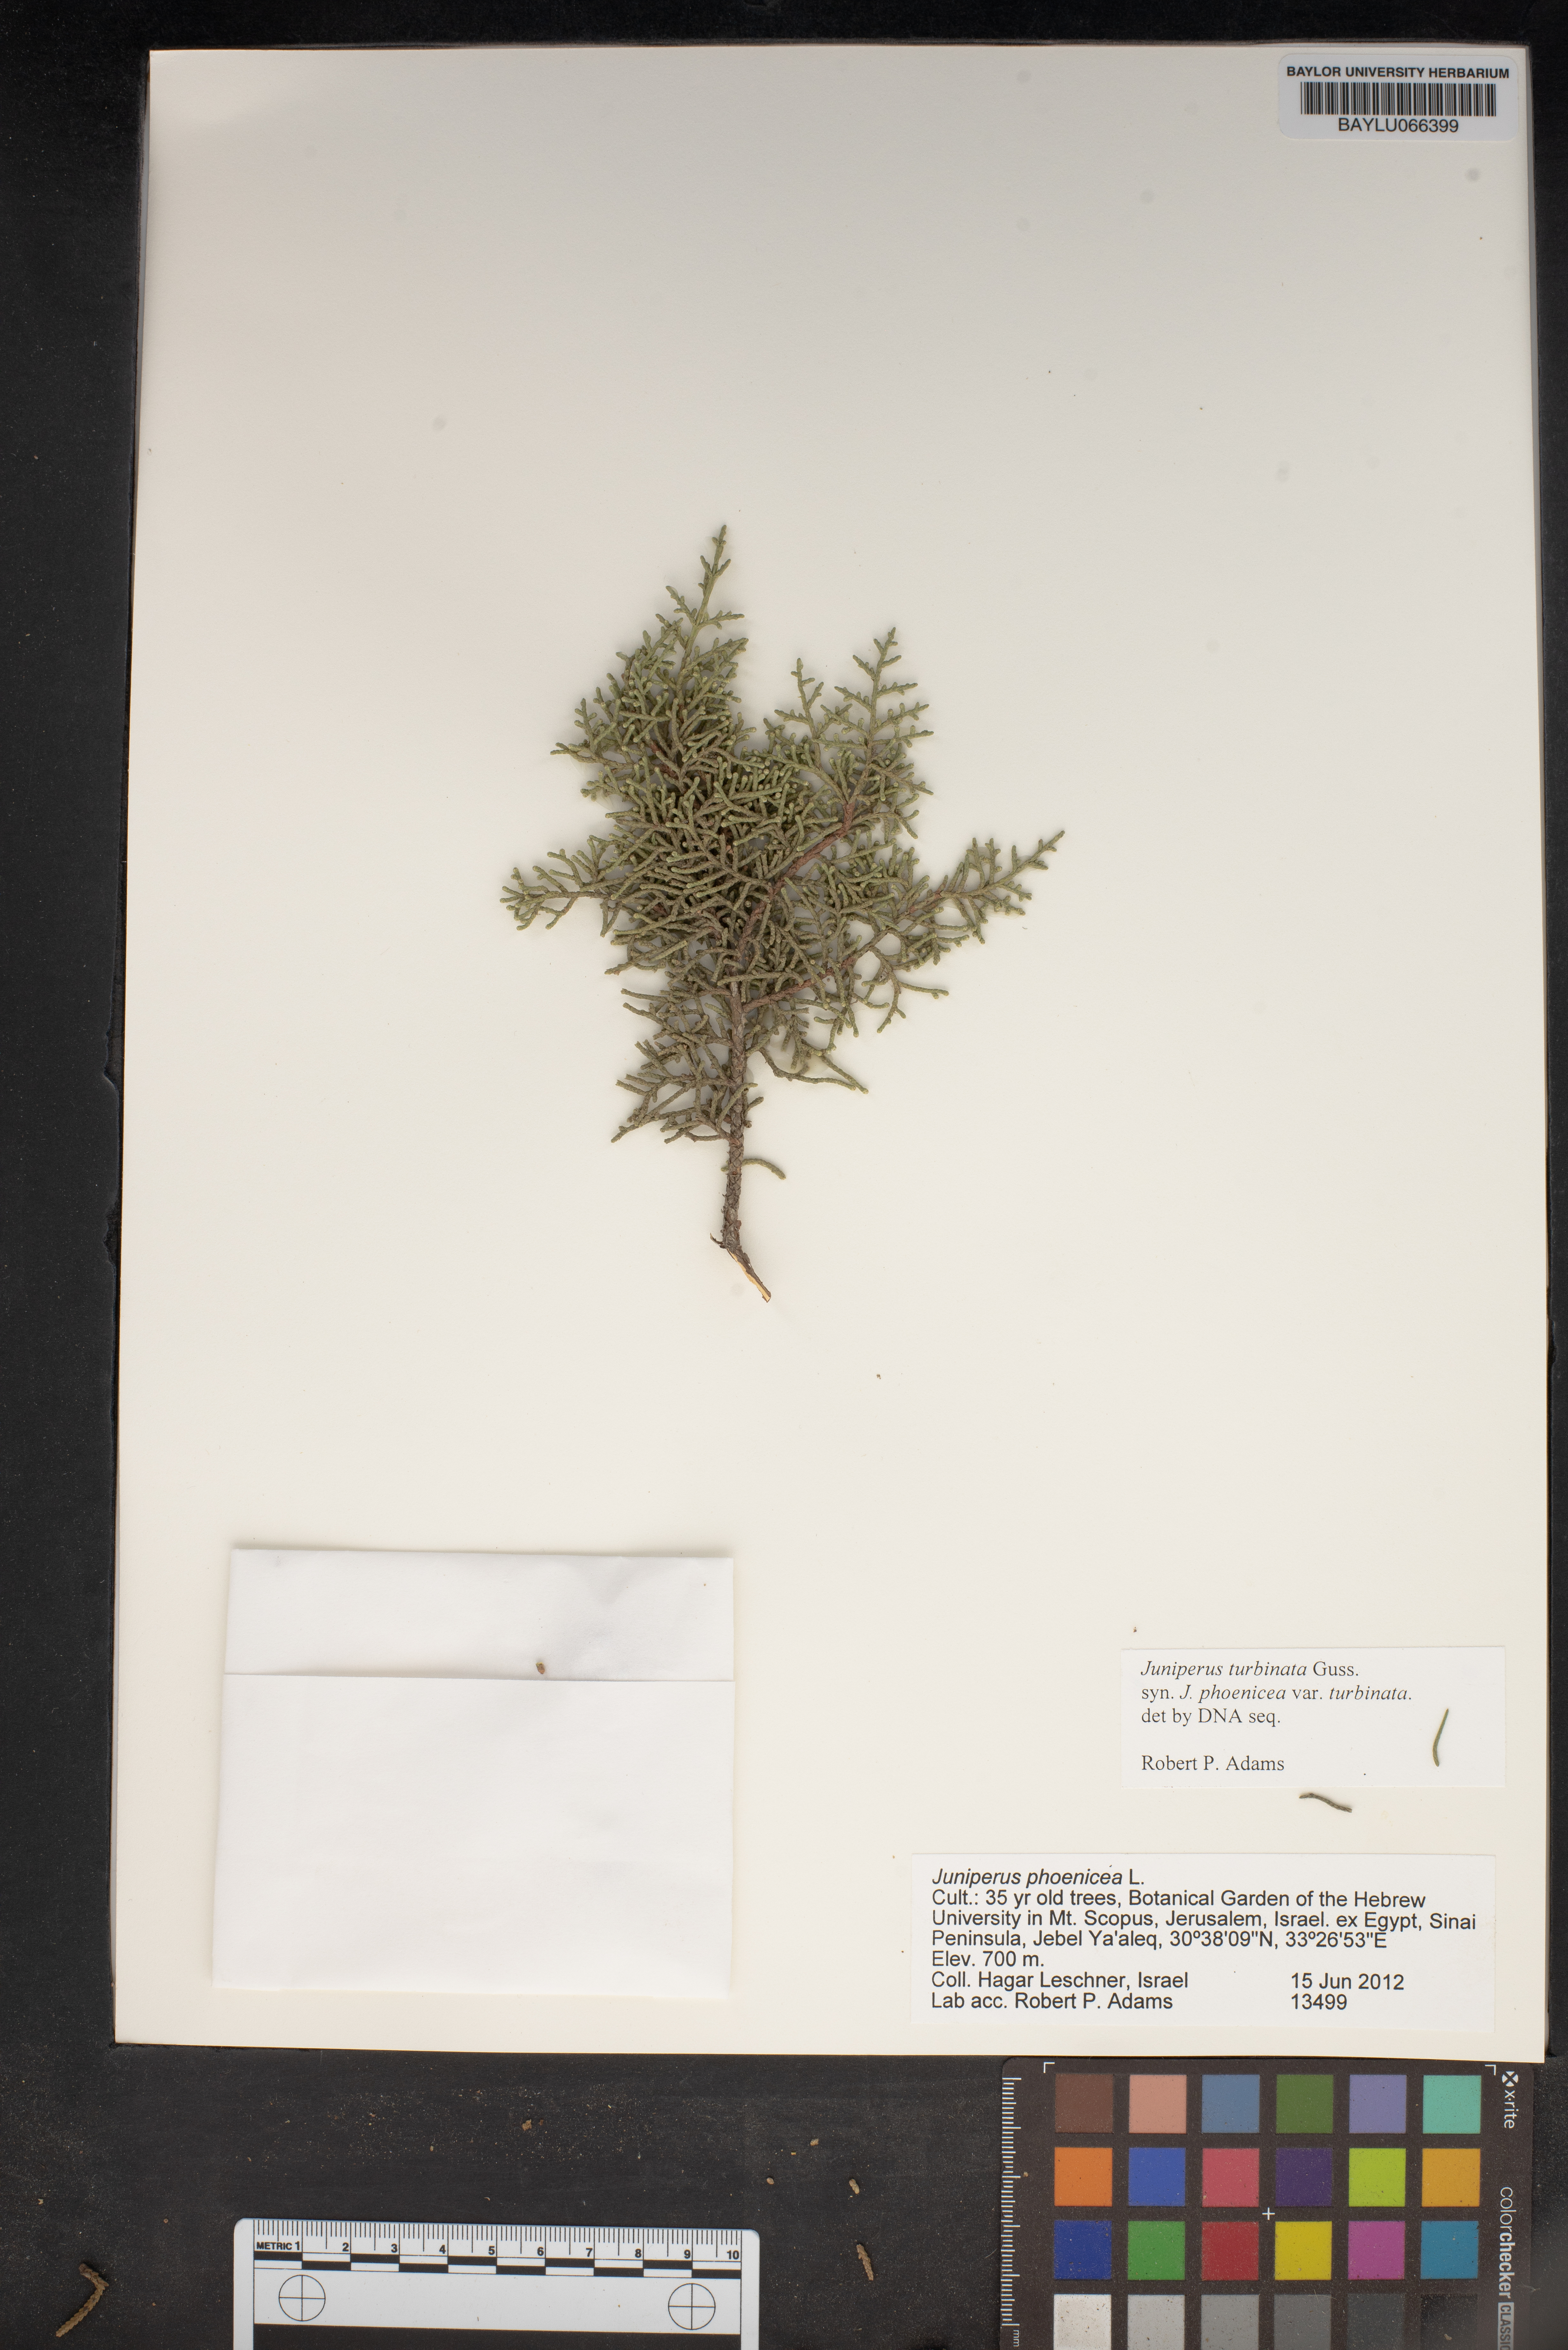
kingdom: Plantae
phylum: Tracheophyta
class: Pinopsida
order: Pinales
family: Cupressaceae
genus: Juniperus
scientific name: Juniperus phoenicea
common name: Phoenician juniper
